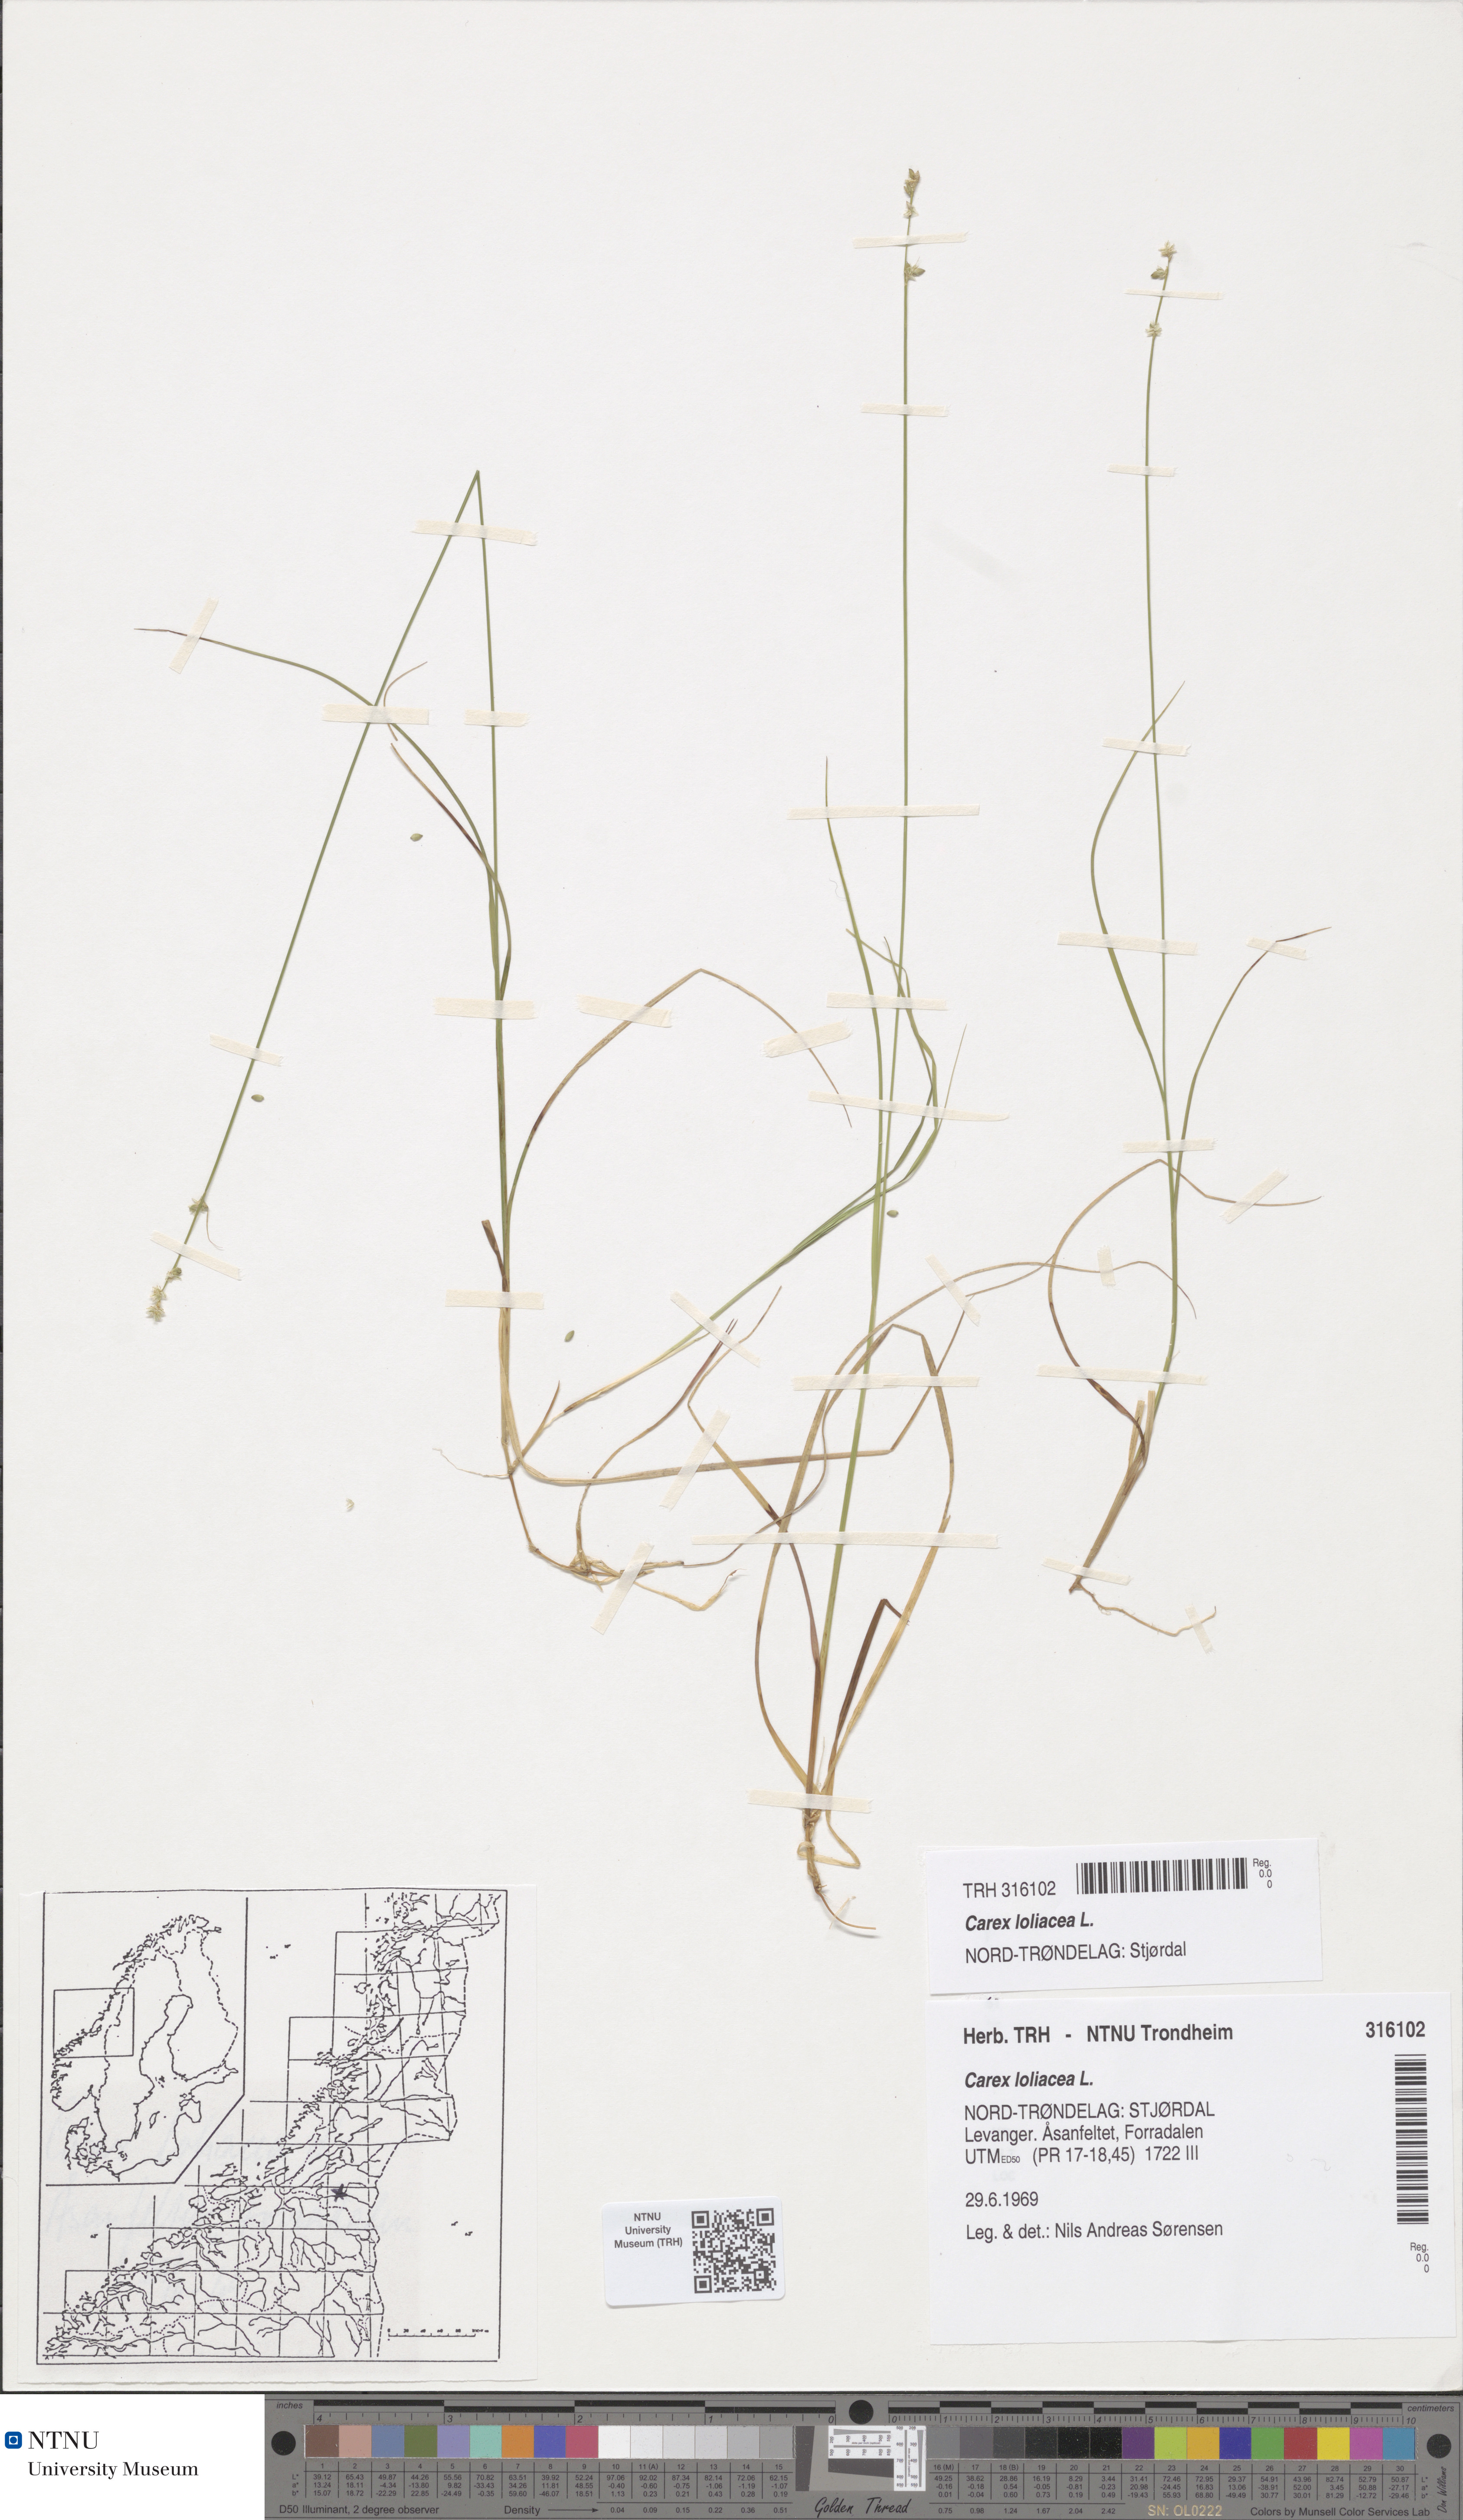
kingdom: Plantae
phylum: Tracheophyta
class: Liliopsida
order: Poales
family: Cyperaceae
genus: Carex
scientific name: Carex loliacea
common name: Ryegrass sedge
